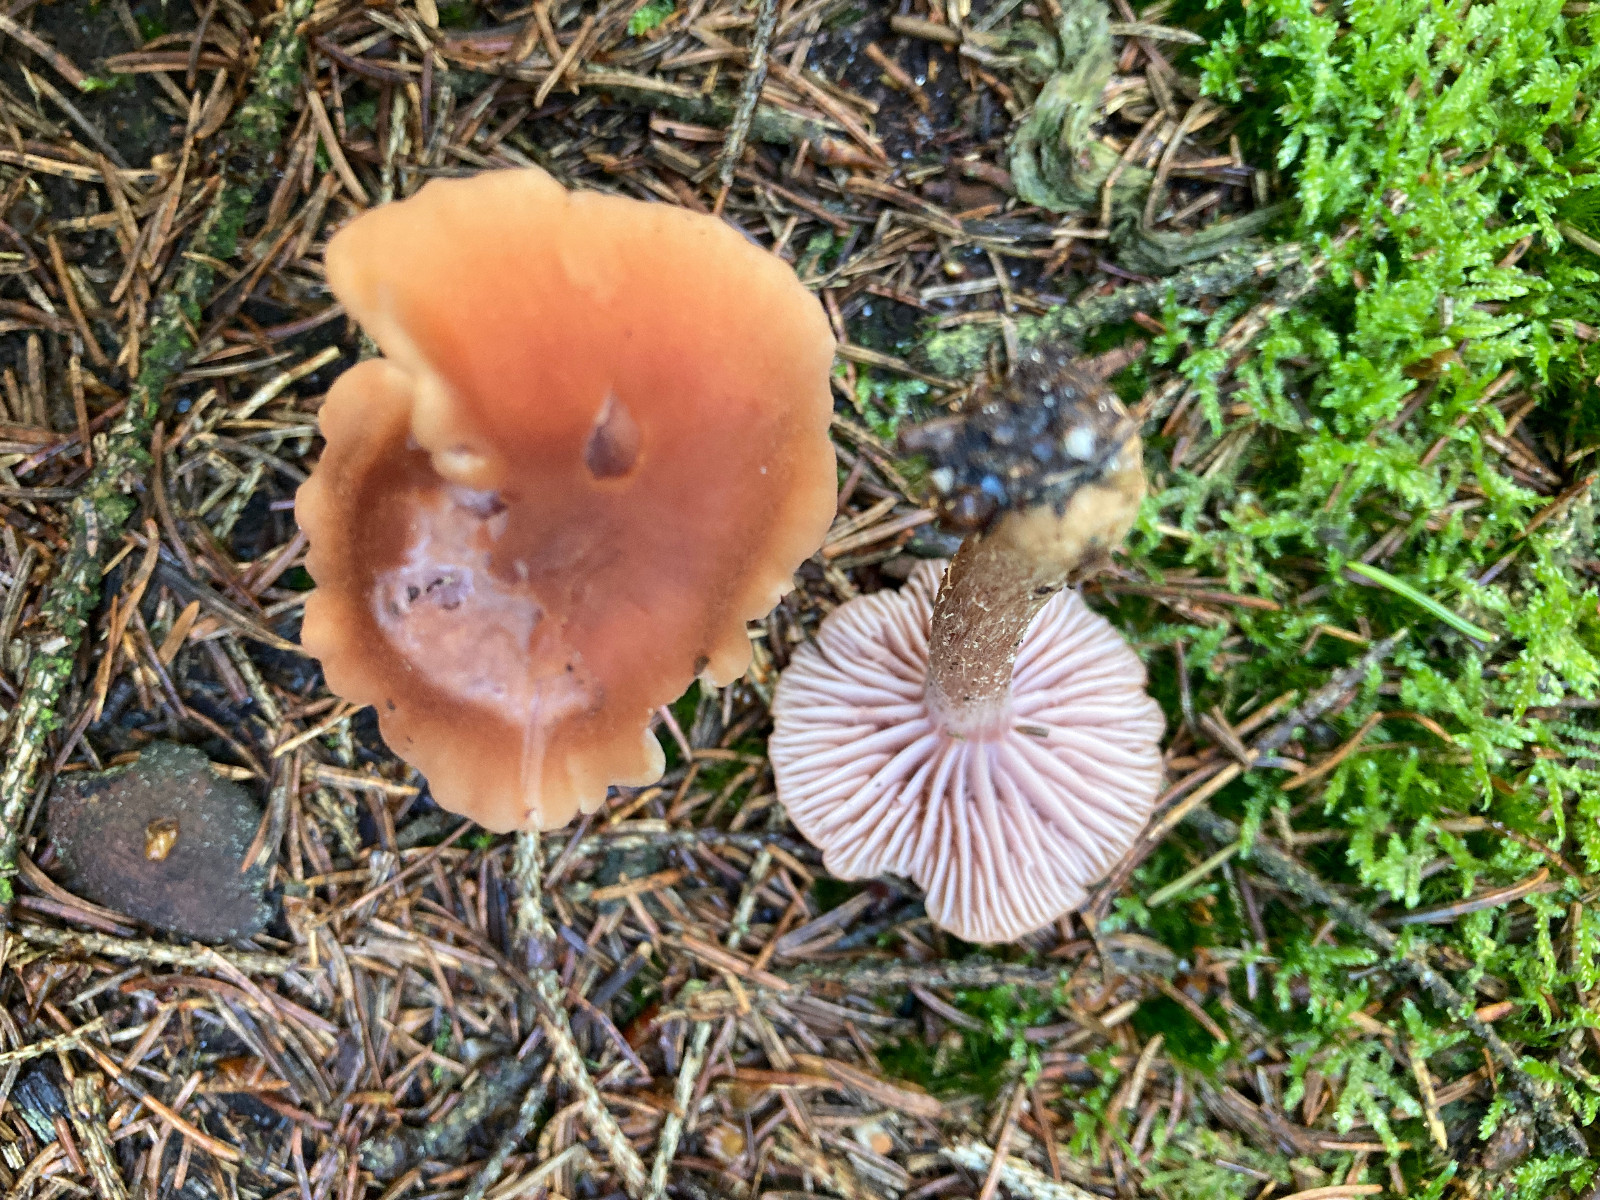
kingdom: Fungi
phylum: Basidiomycota
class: Agaricomycetes
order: Agaricales
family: Hydnangiaceae
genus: Laccaria
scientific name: Laccaria bicolor
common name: tvefarvet ametysthat
